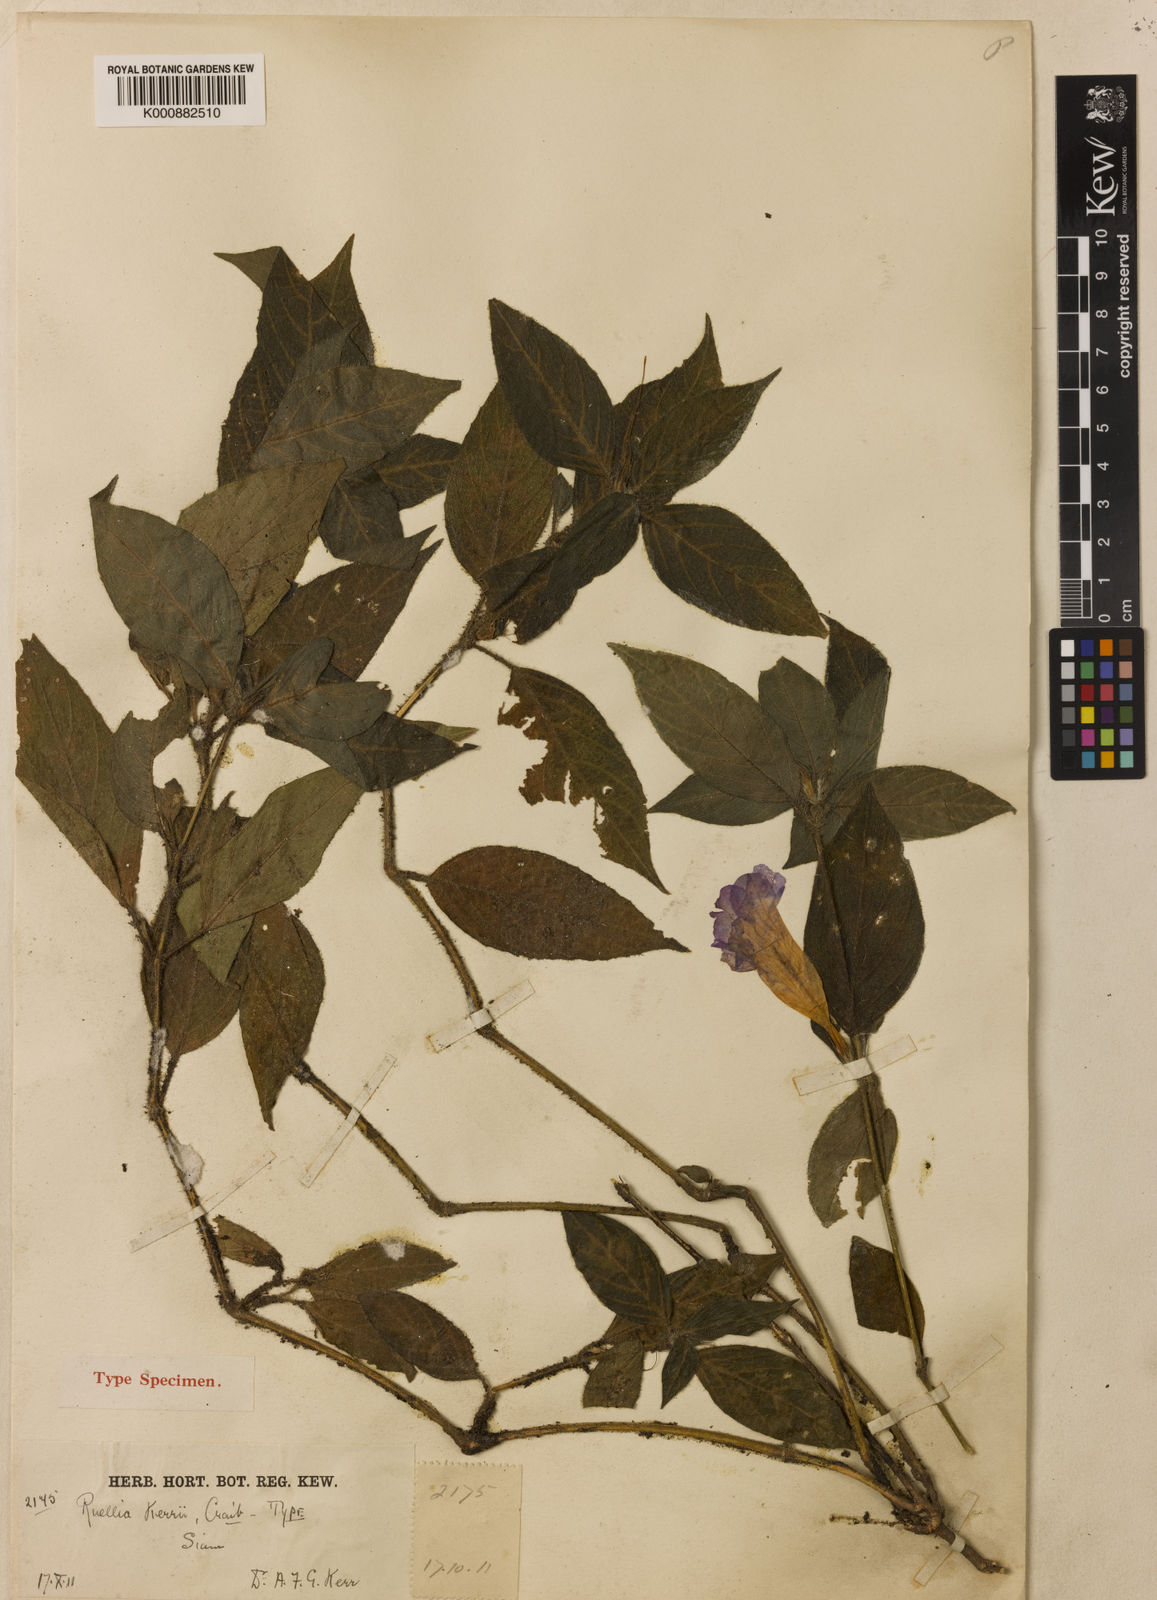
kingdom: Plantae
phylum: Tracheophyta
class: Magnoliopsida
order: Lamiales
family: Acanthaceae
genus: Ruellia
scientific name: Ruellia kerrii
